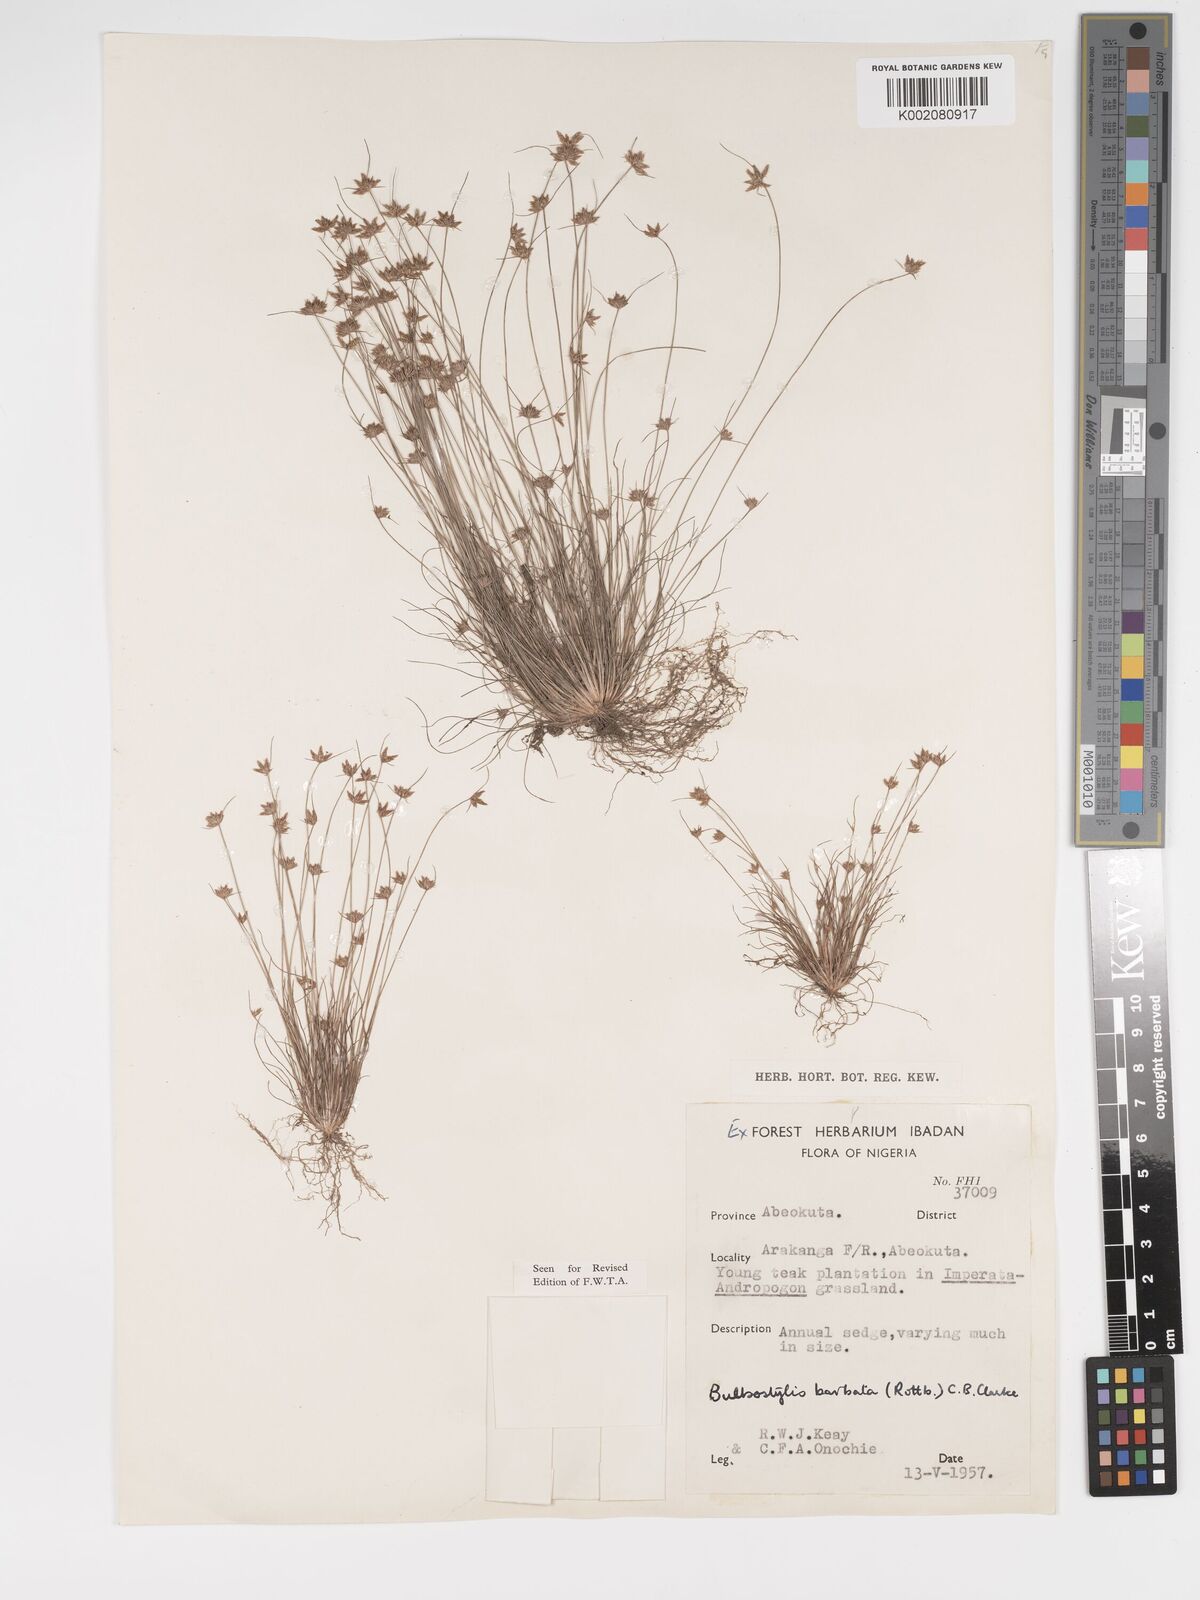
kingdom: Plantae
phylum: Tracheophyta
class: Liliopsida
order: Poales
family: Cyperaceae
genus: Bulbostylis
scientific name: Bulbostylis barbata
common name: Watergrass
